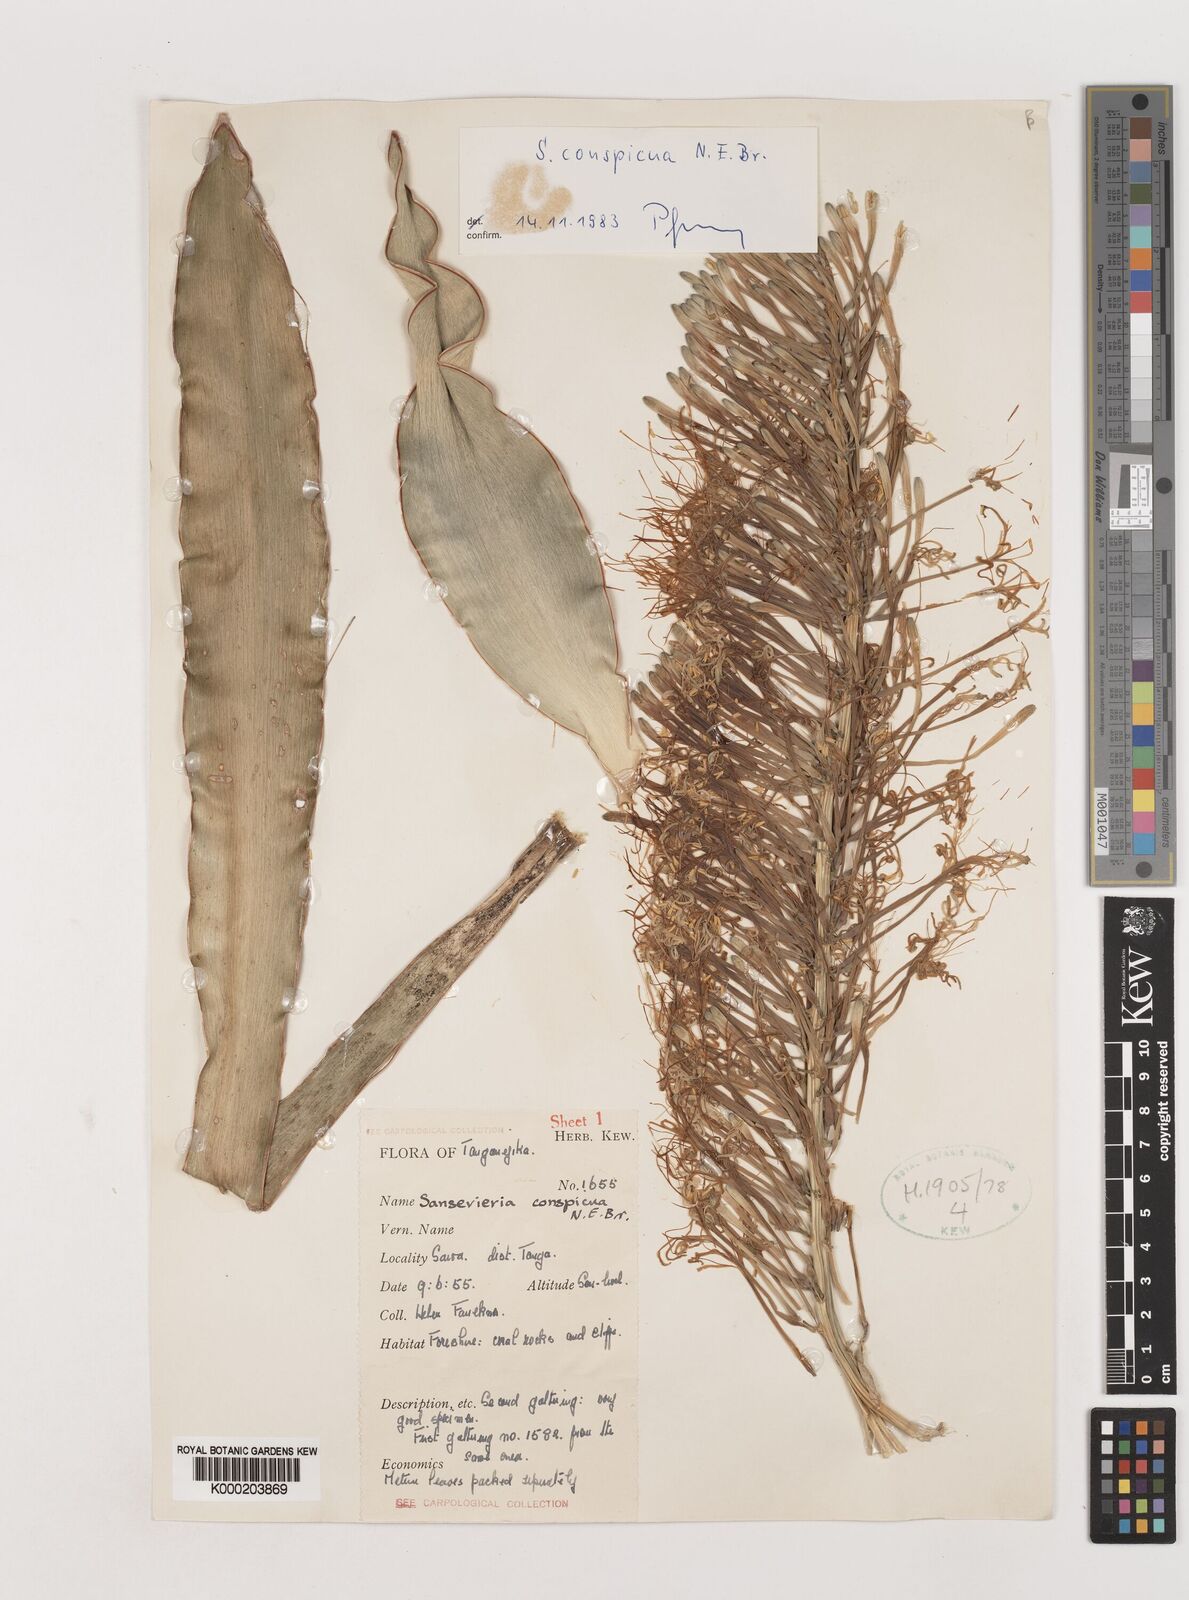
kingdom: Plantae
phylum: Tracheophyta
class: Liliopsida
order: Asparagales
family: Asparagaceae
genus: Dracaena
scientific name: Dracaena conspicua
